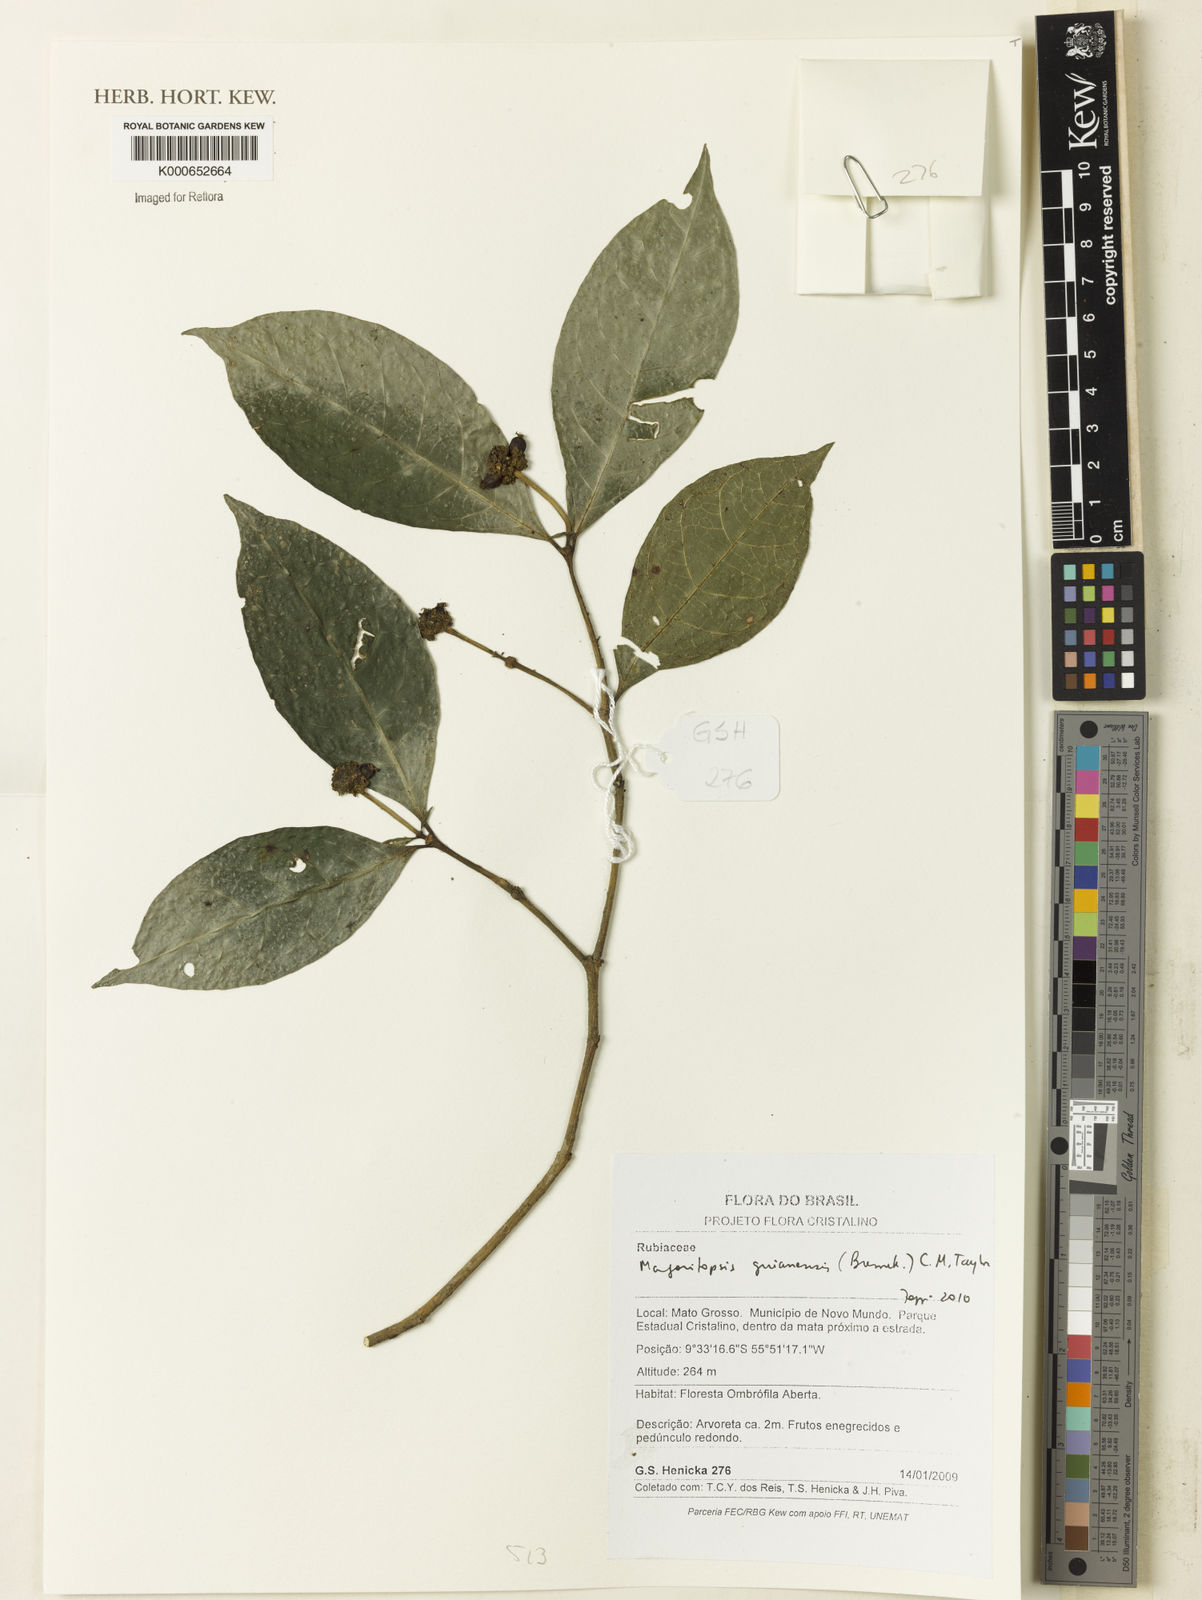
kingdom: Plantae
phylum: Tracheophyta
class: Magnoliopsida
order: Gentianales
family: Rubiaceae
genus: Eumachia
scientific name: Eumachia guianensis
